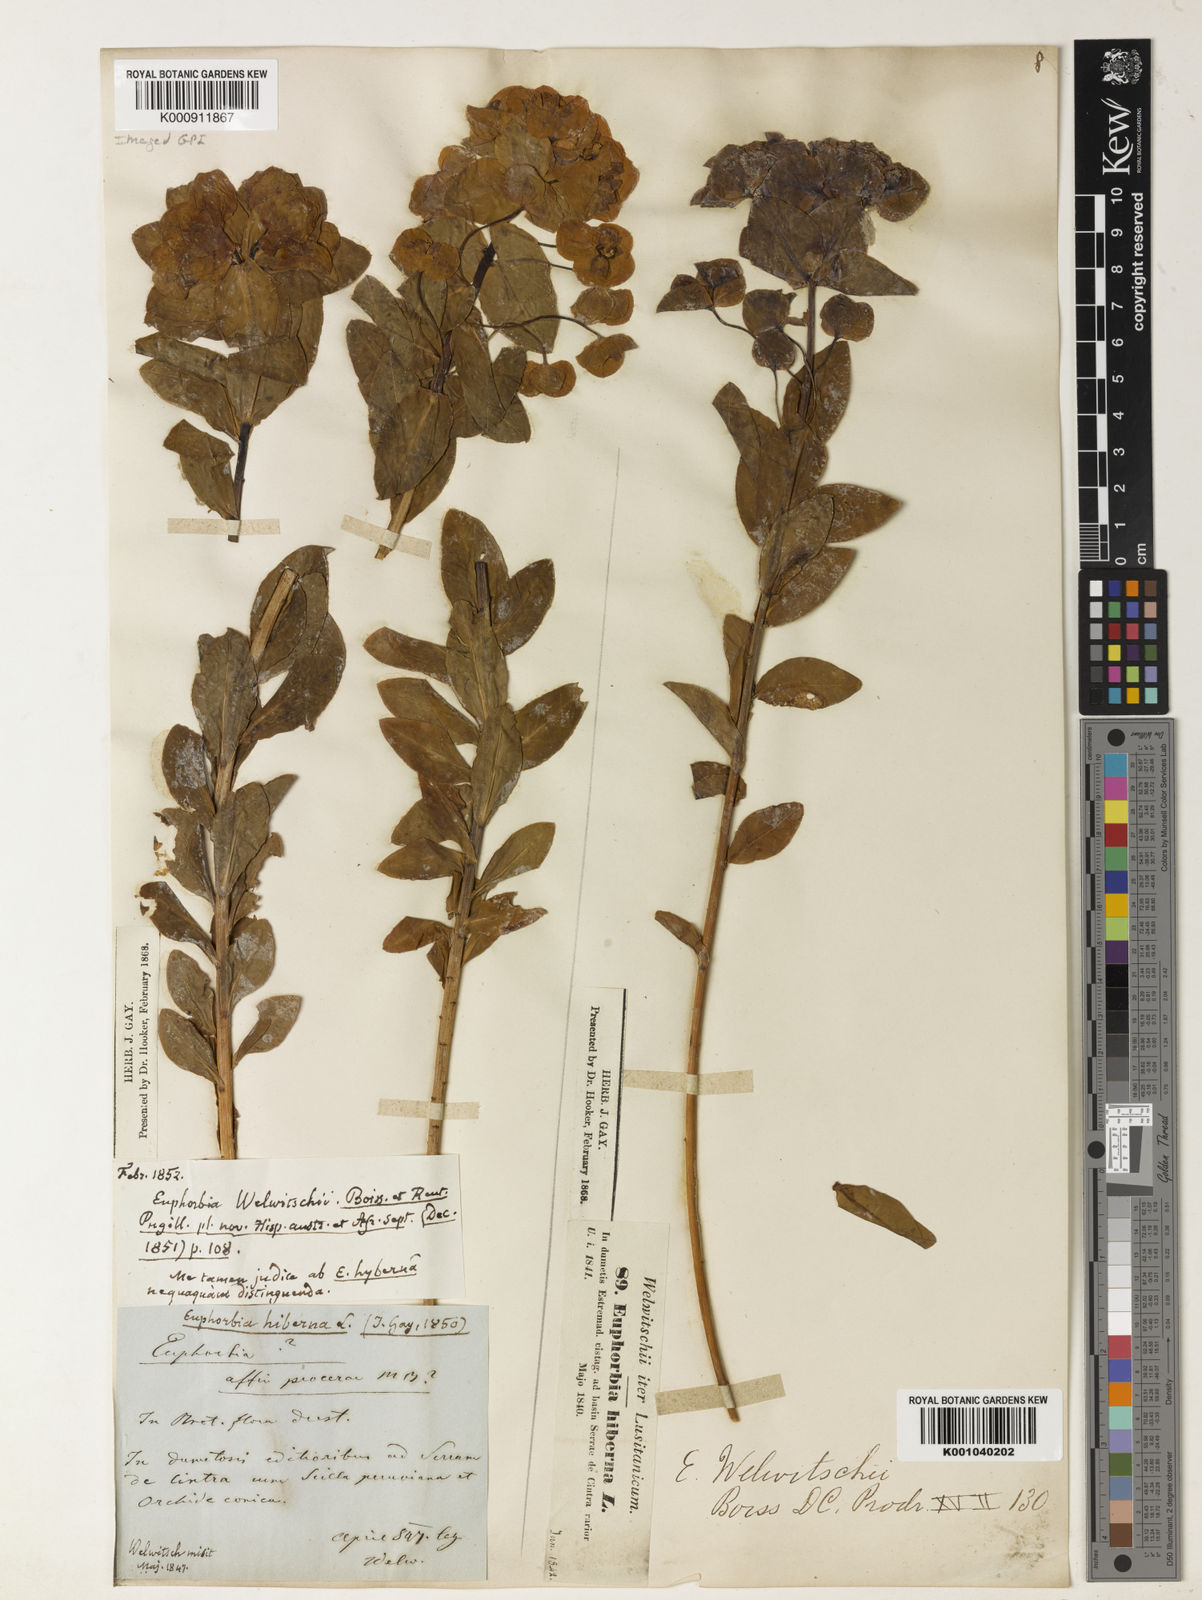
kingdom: Plantae
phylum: Tracheophyta
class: Magnoliopsida
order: Malpighiales
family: Euphorbiaceae
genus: Euphorbia
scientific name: Euphorbia paniculata
